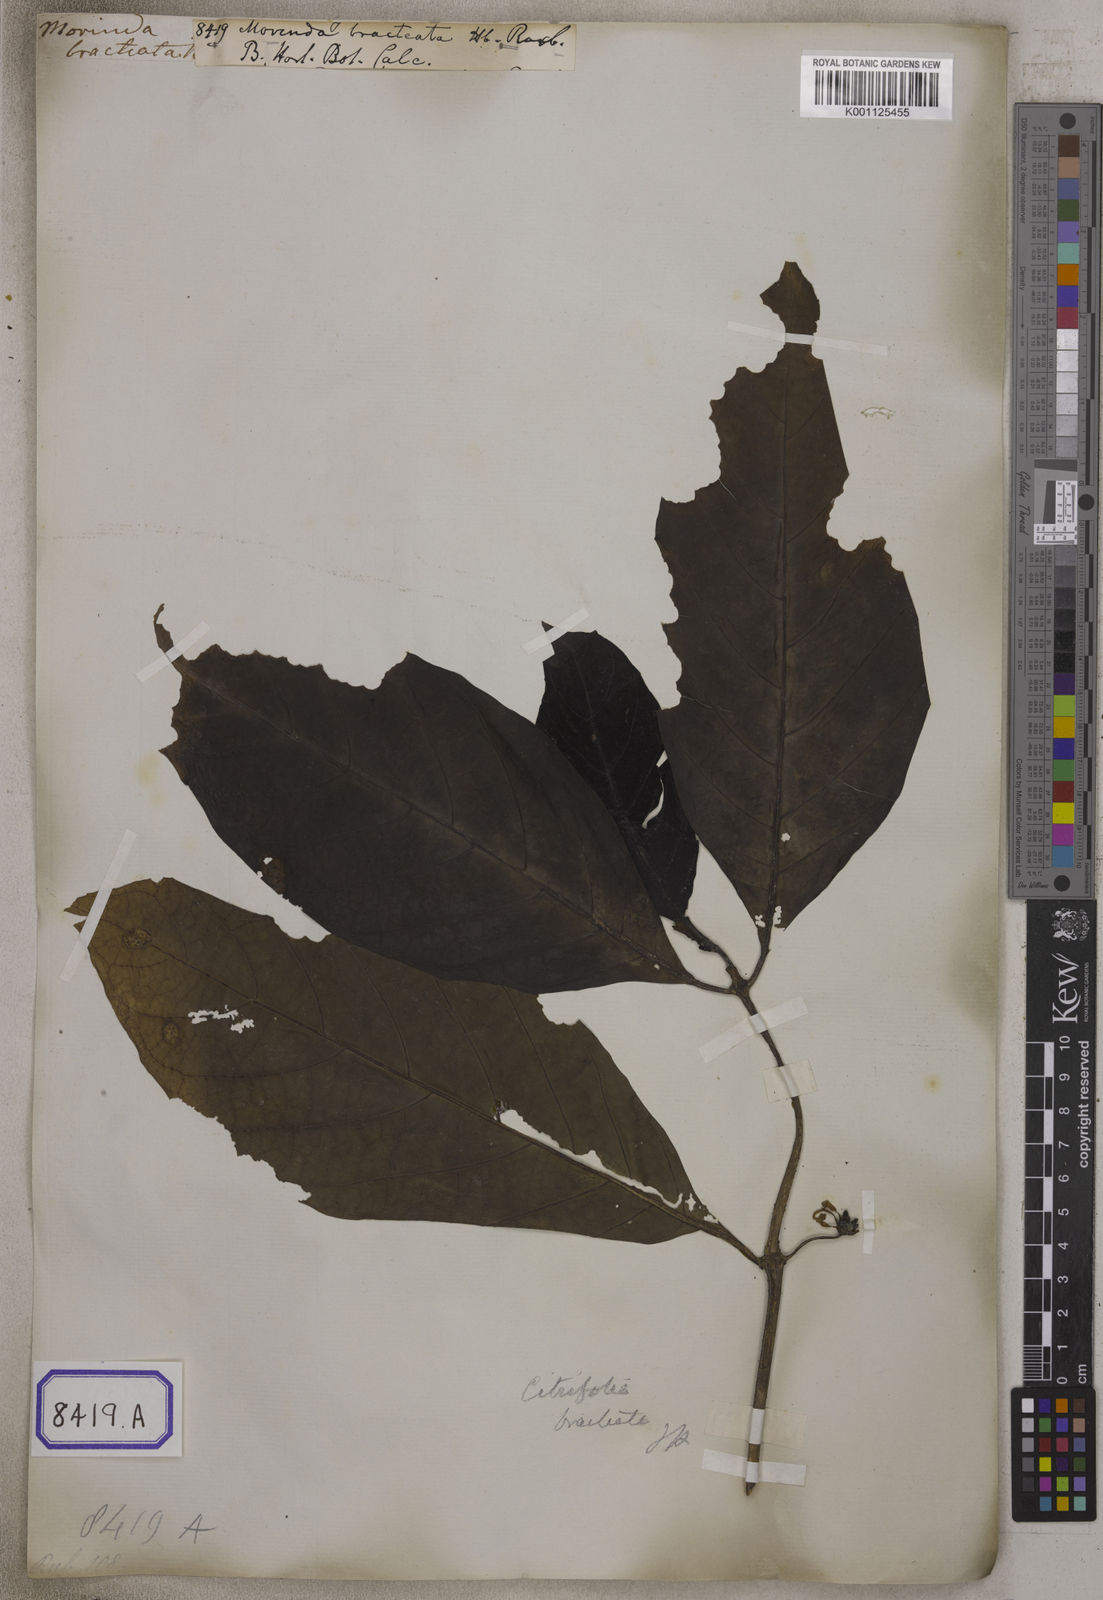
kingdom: Plantae
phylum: Tracheophyta
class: Magnoliopsida
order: Gentianales
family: Rubiaceae
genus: Morinda
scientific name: Morinda bracteata
